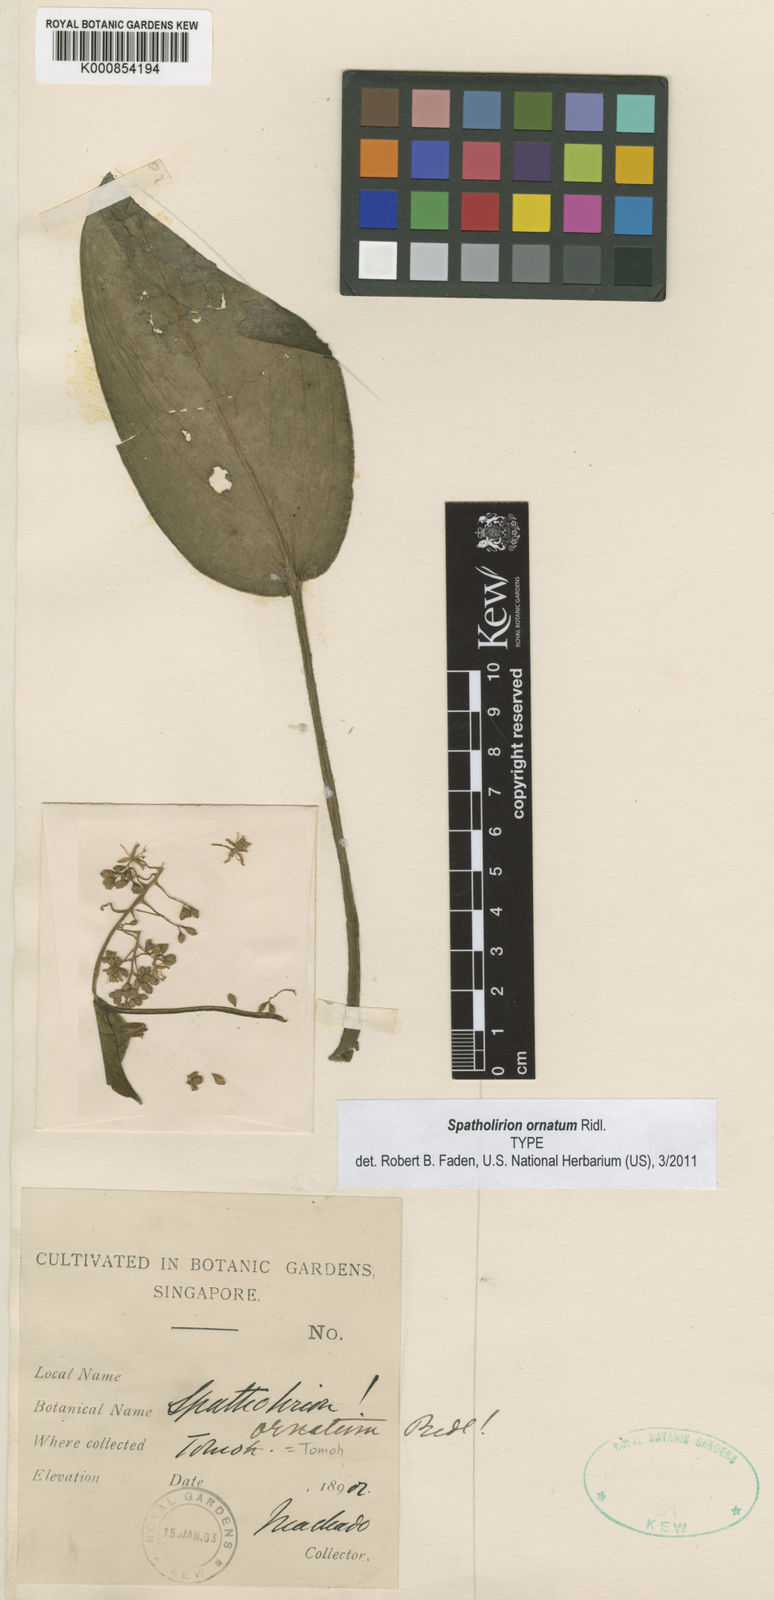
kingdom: Plantae
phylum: Tracheophyta
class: Liliopsida
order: Commelinales
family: Commelinaceae
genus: Spatholirion
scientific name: Spatholirion ornatum
